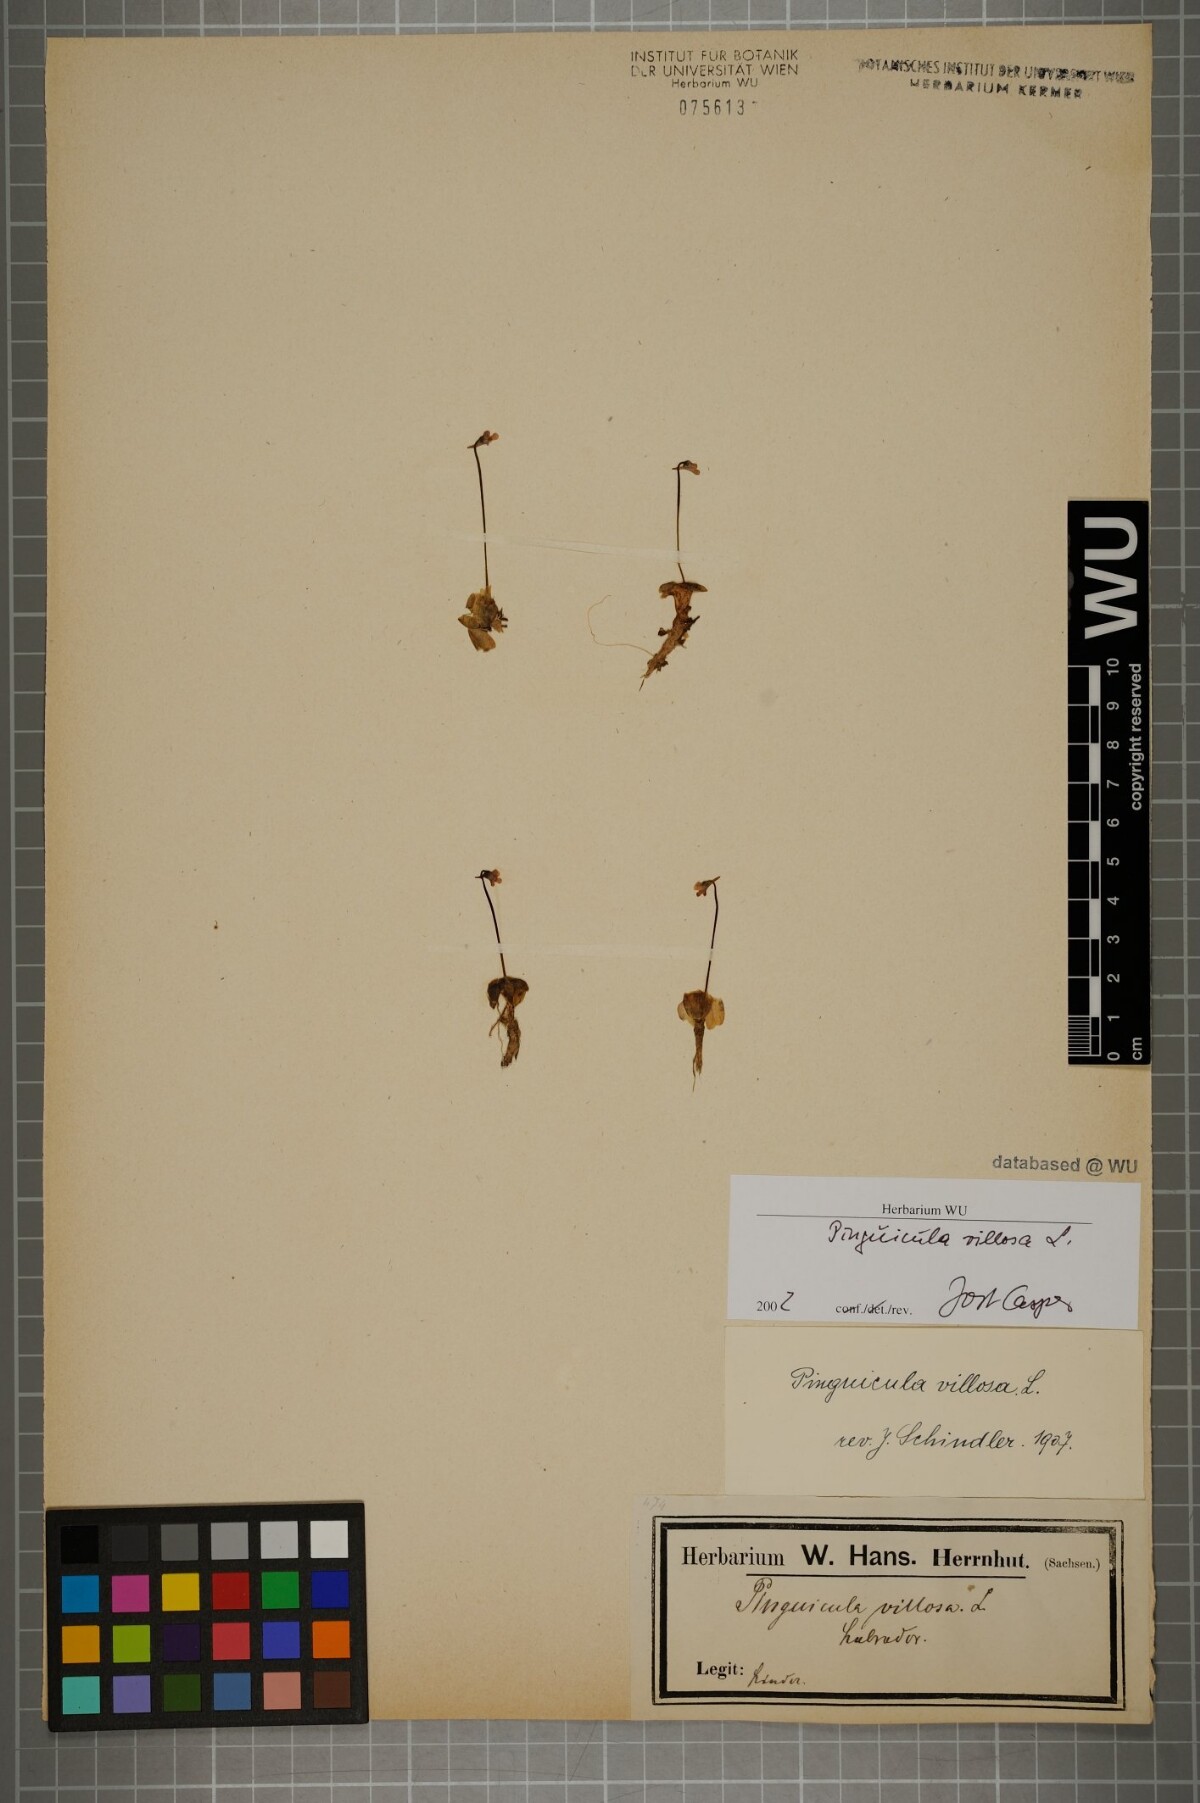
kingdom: Plantae
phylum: Tracheophyta
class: Magnoliopsida
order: Lamiales
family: Lentibulariaceae
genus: Pinguicula
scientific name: Pinguicula villosa
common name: Hairy butterwort
